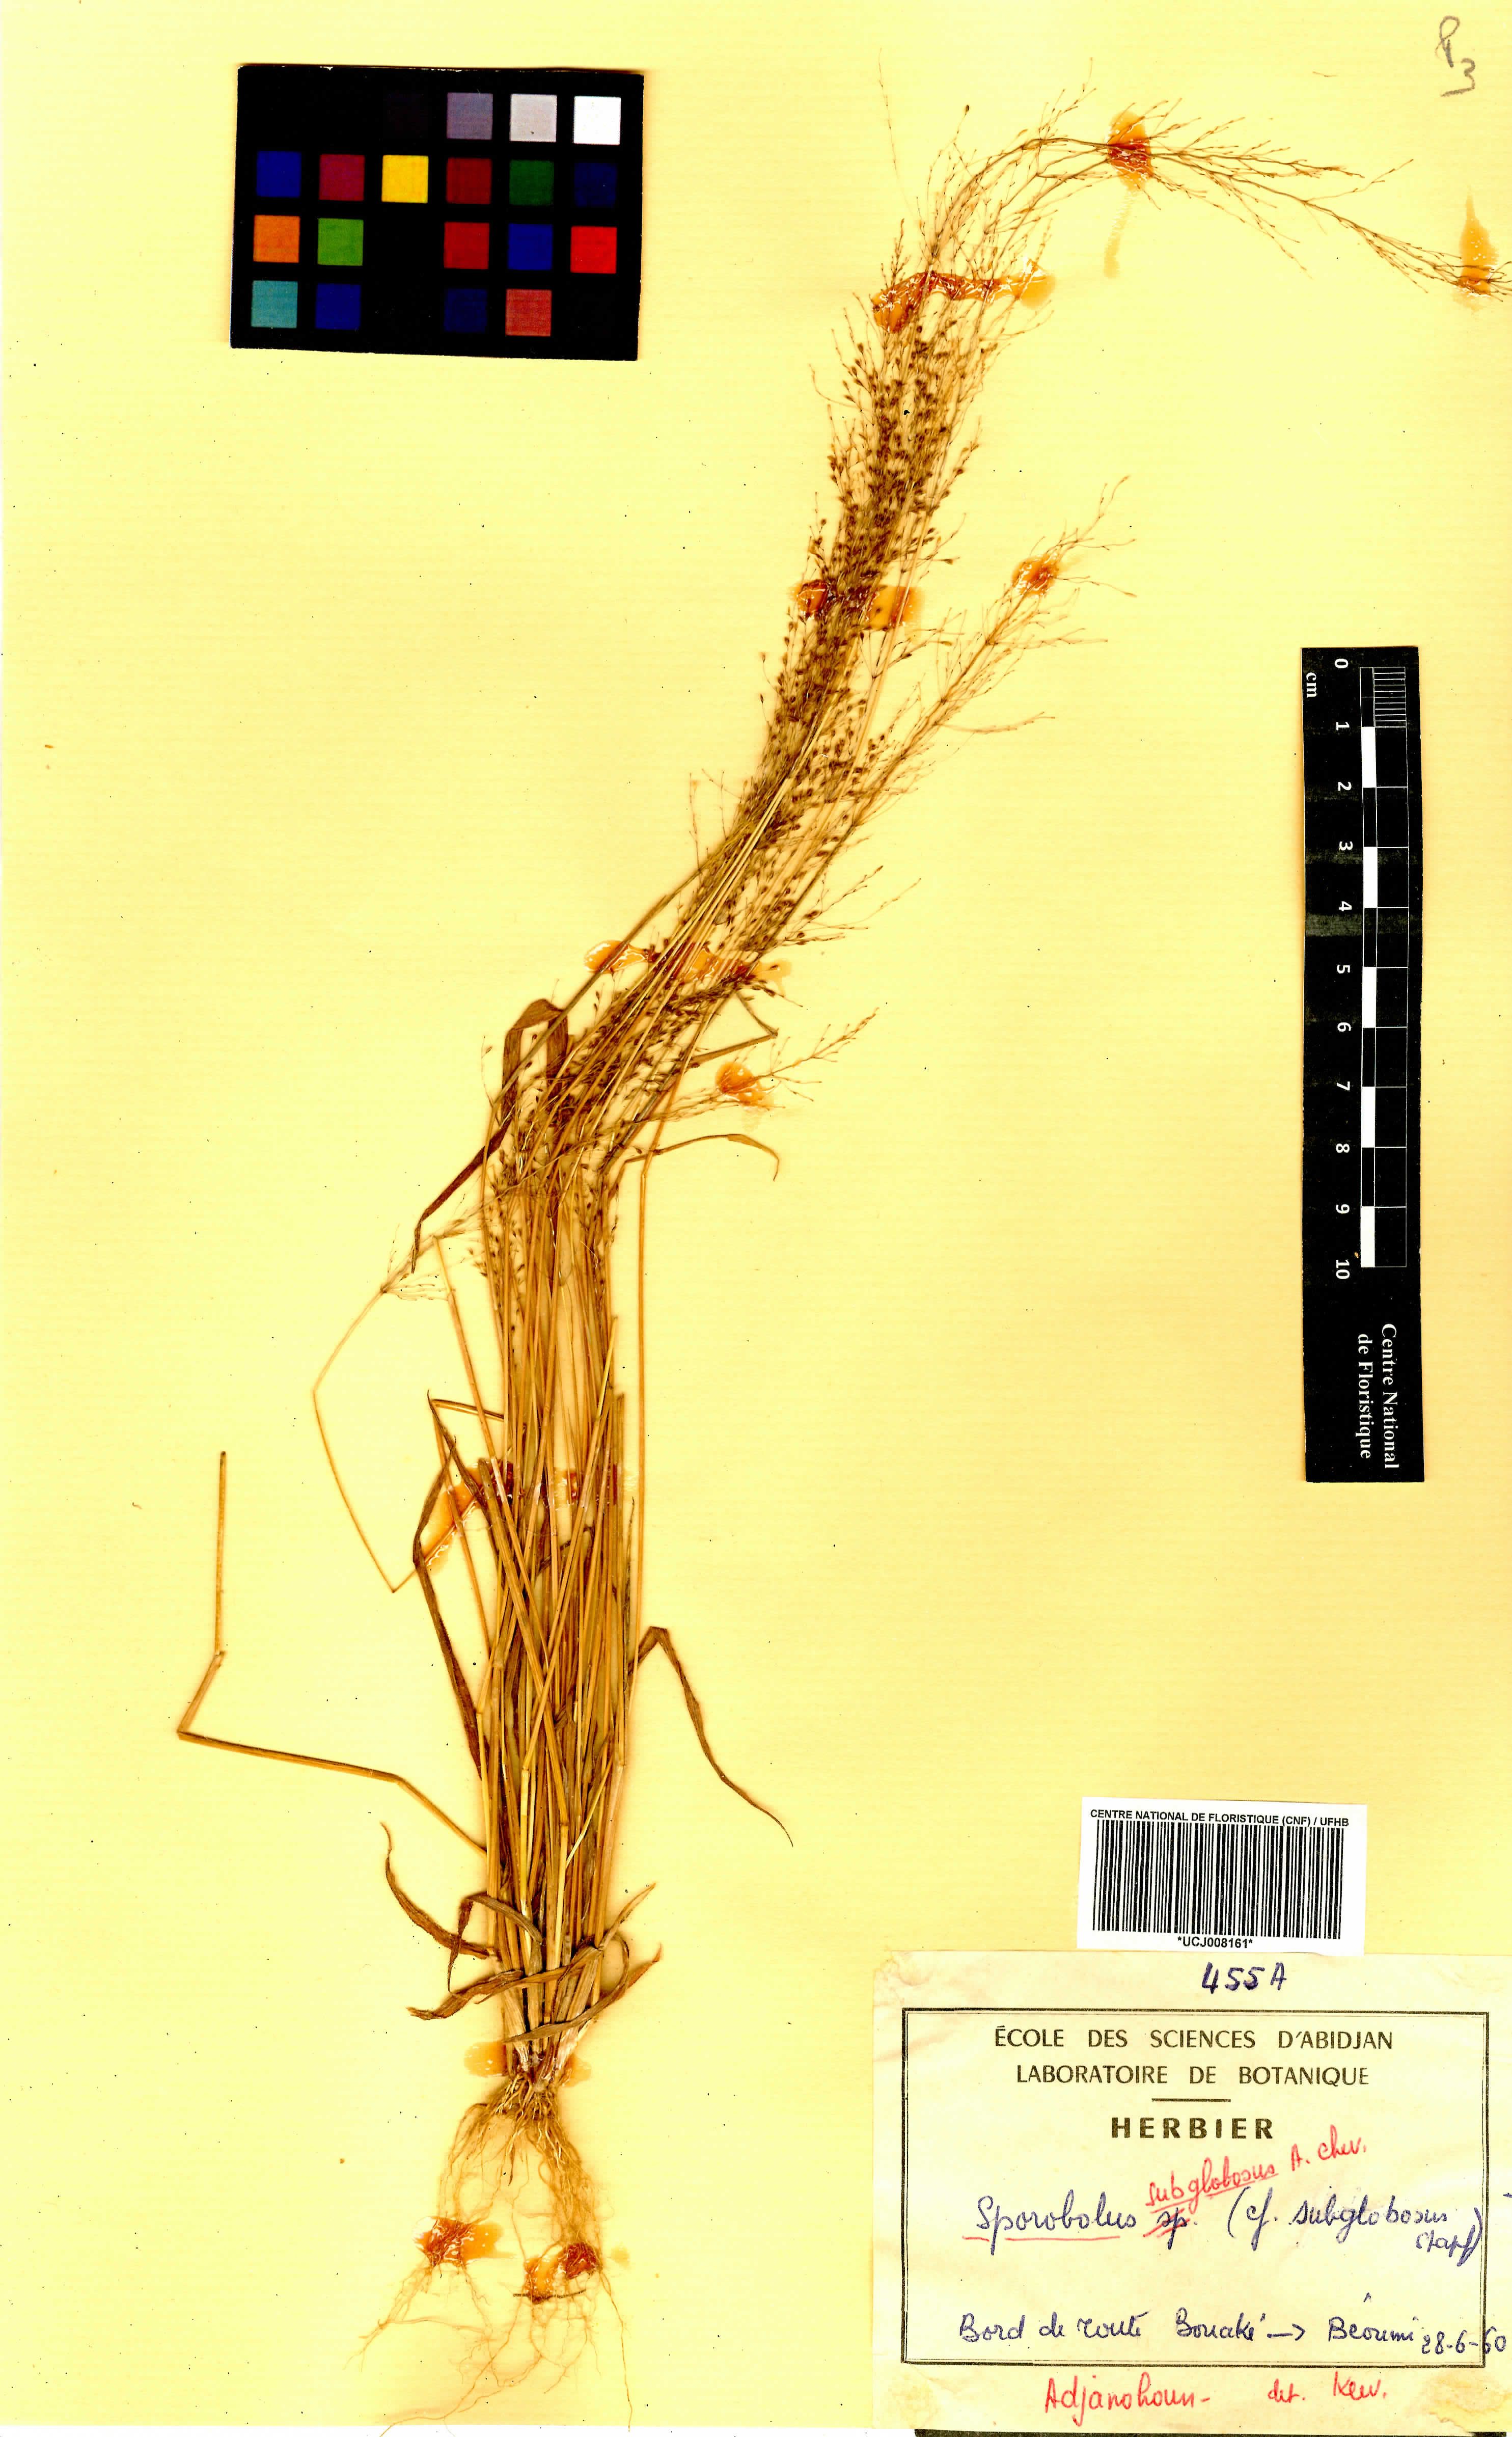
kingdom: Plantae
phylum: Tracheophyta
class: Liliopsida
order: Poales
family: Poaceae
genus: Sporobolus
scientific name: Sporobolus subglobosus
